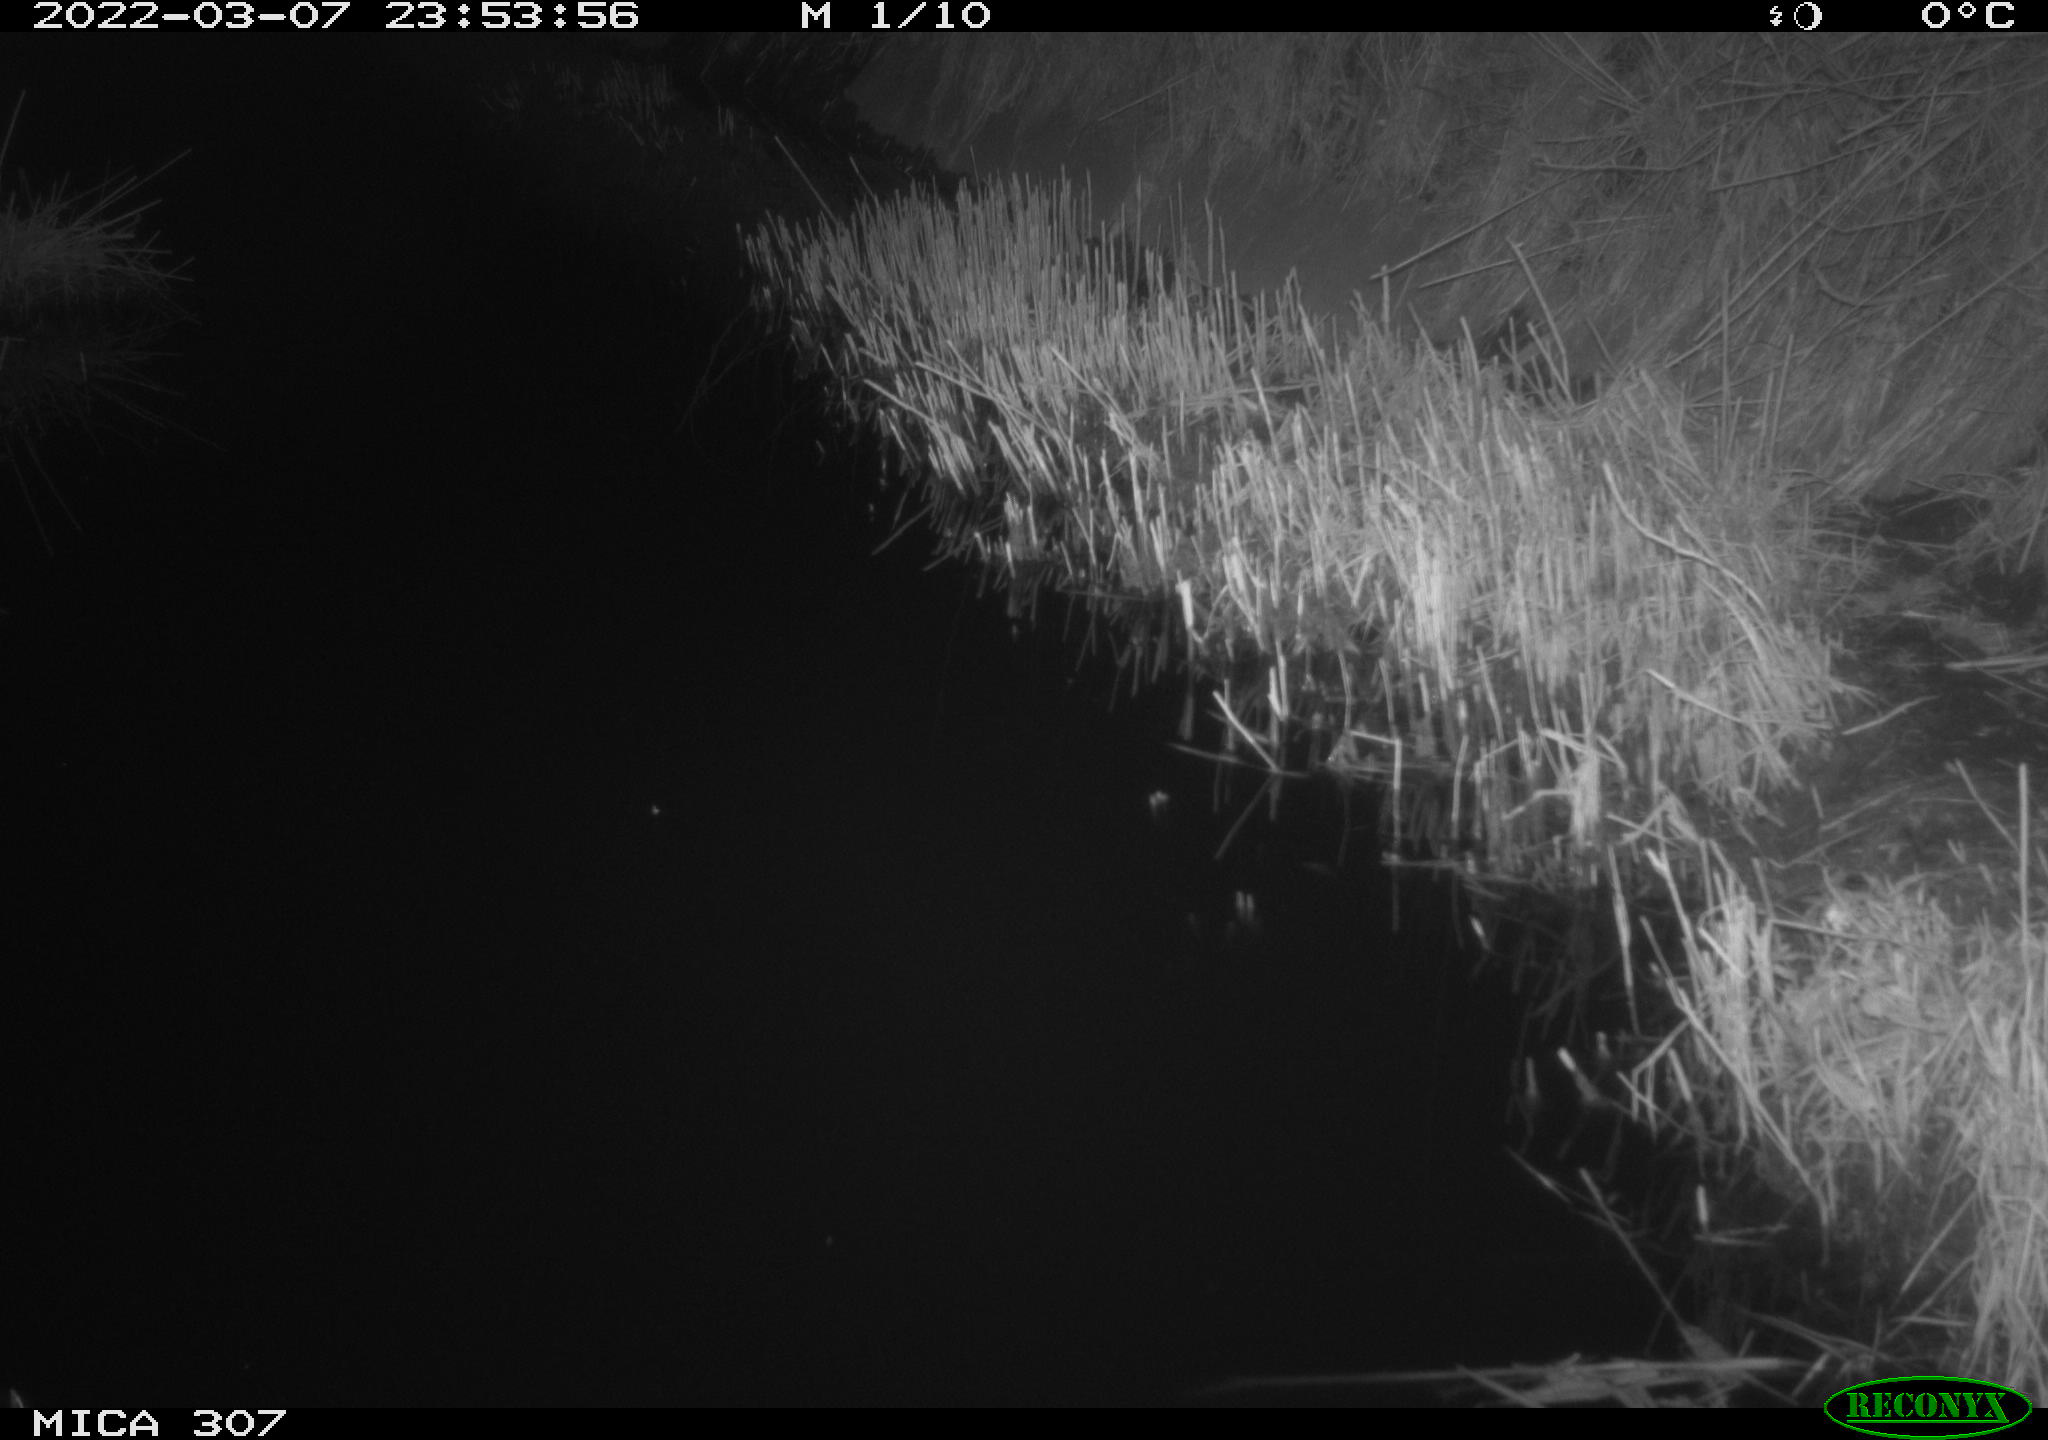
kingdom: Animalia
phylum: Chordata
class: Mammalia
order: Rodentia
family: Muridae
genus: Rattus
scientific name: Rattus norvegicus
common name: Brown rat
